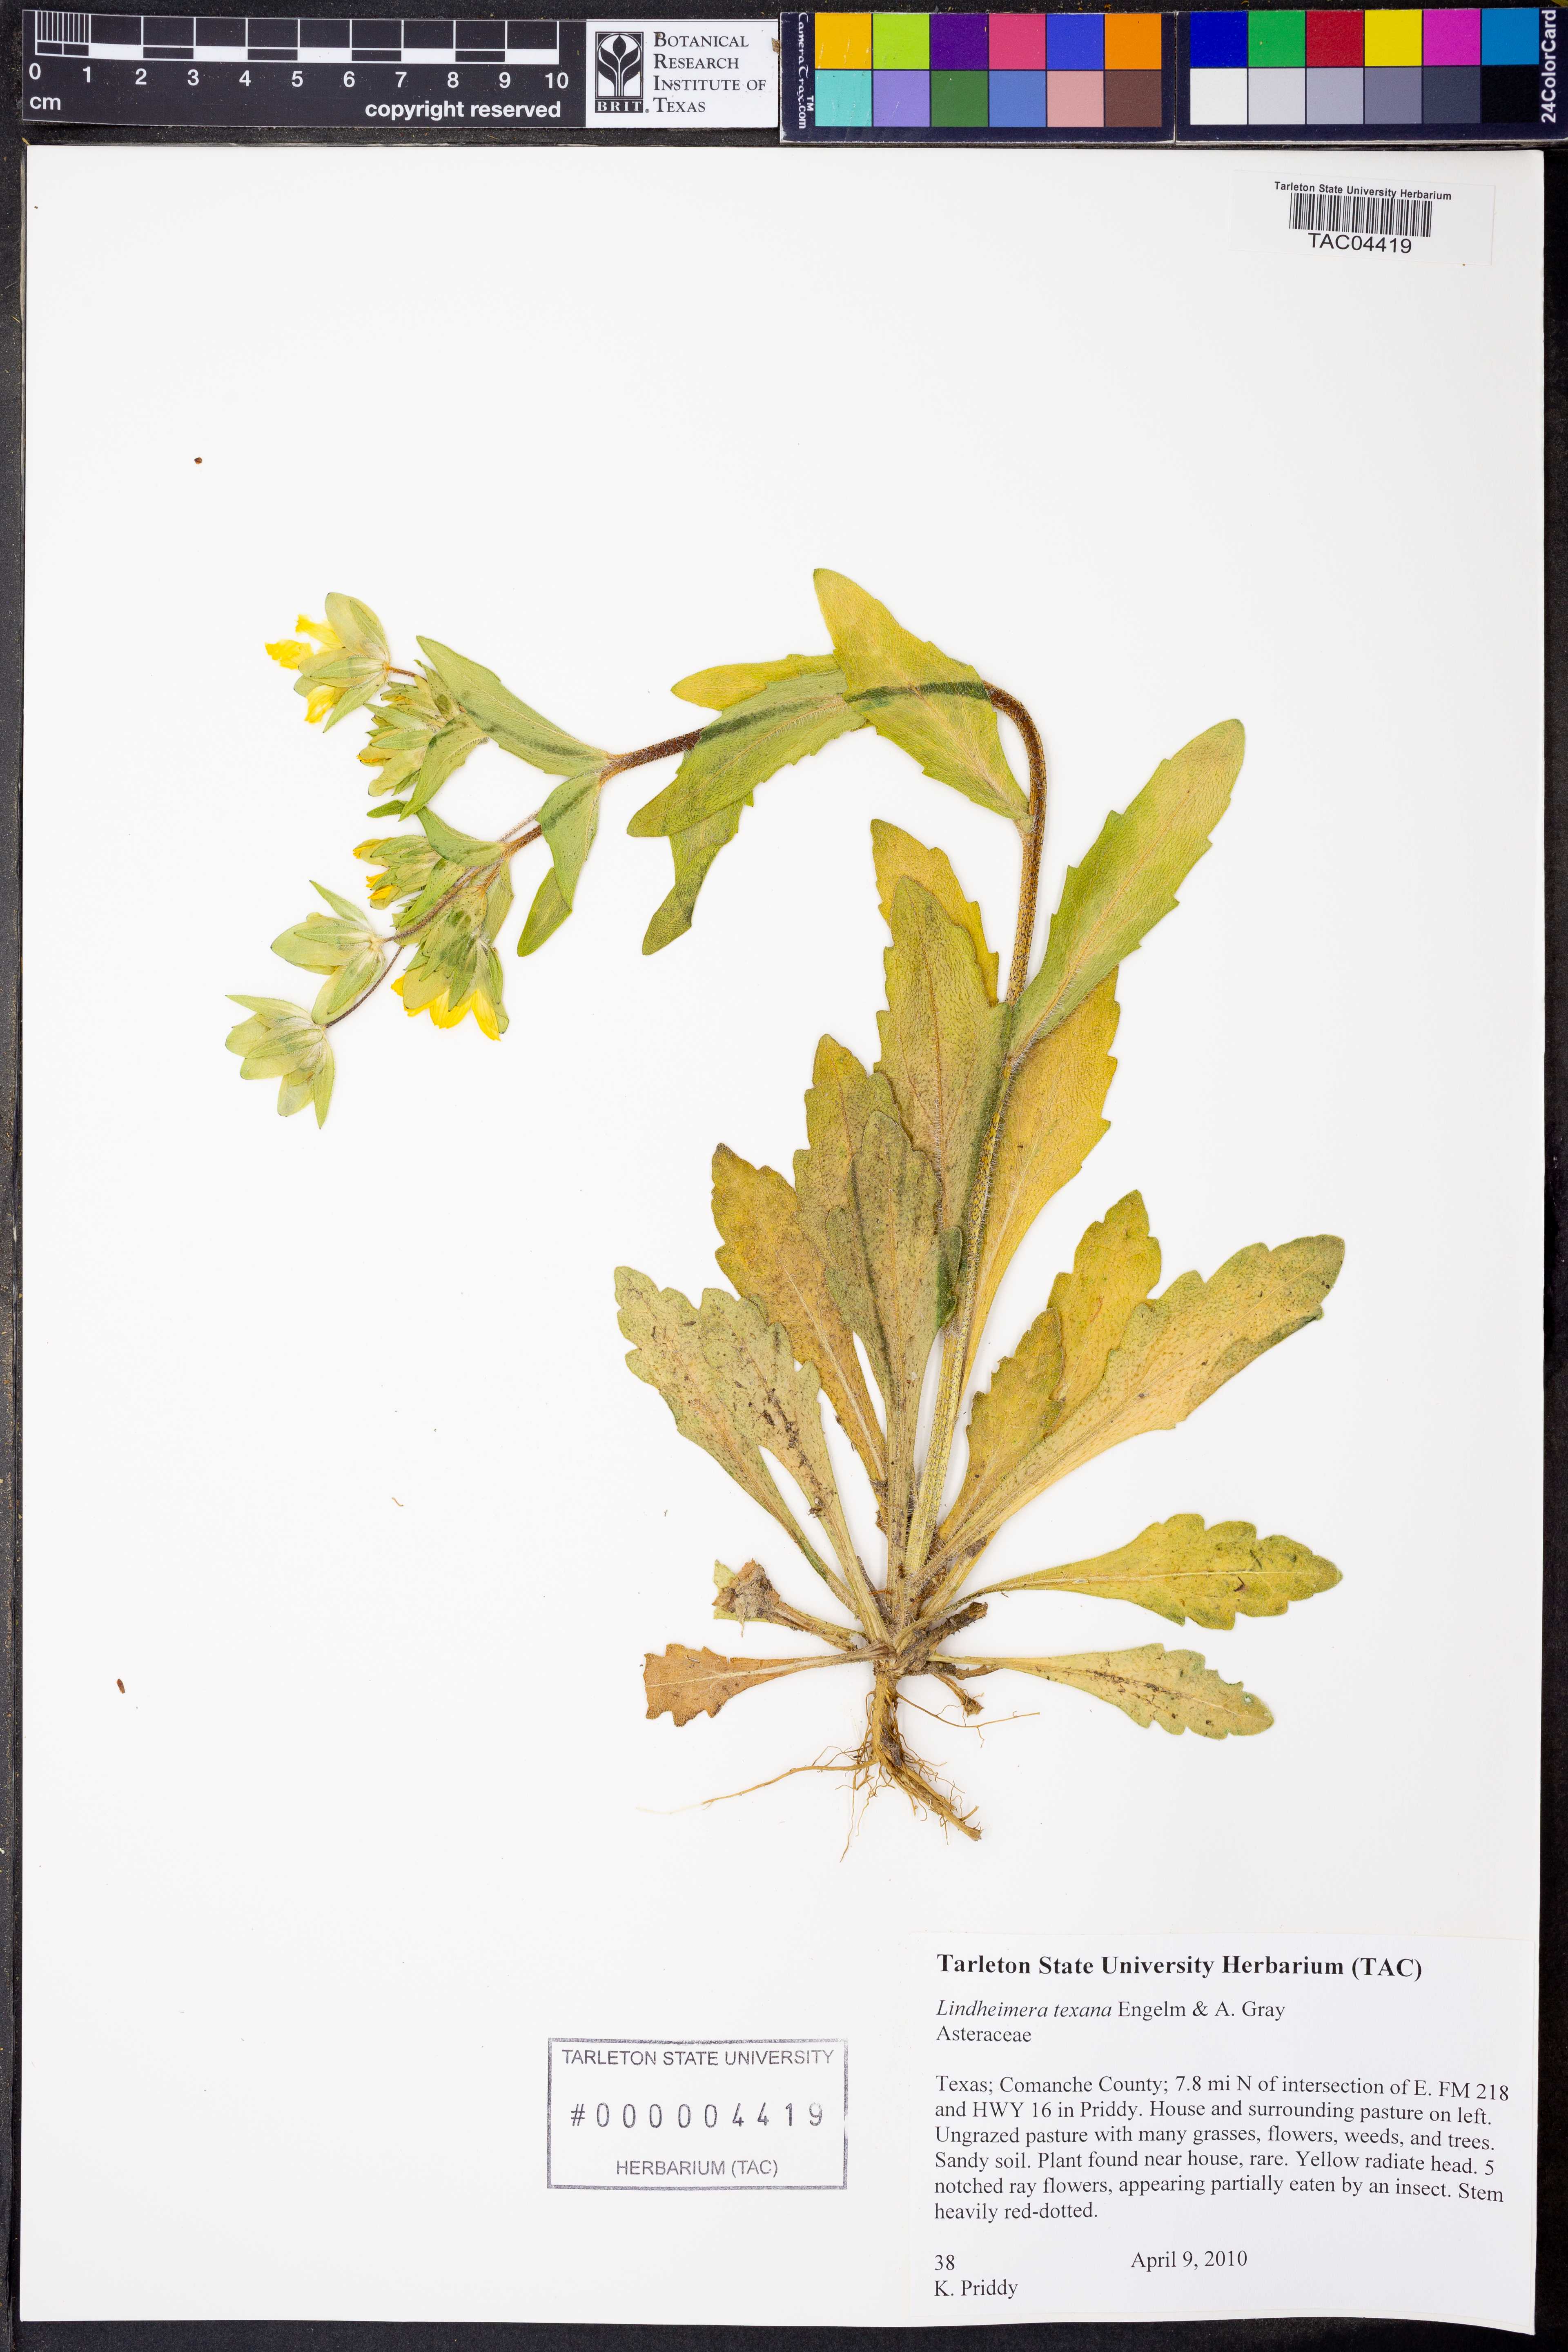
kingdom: Plantae
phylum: Tracheophyta
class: Magnoliopsida
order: Asterales
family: Asteraceae
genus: Lindheimera
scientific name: Lindheimera texana
